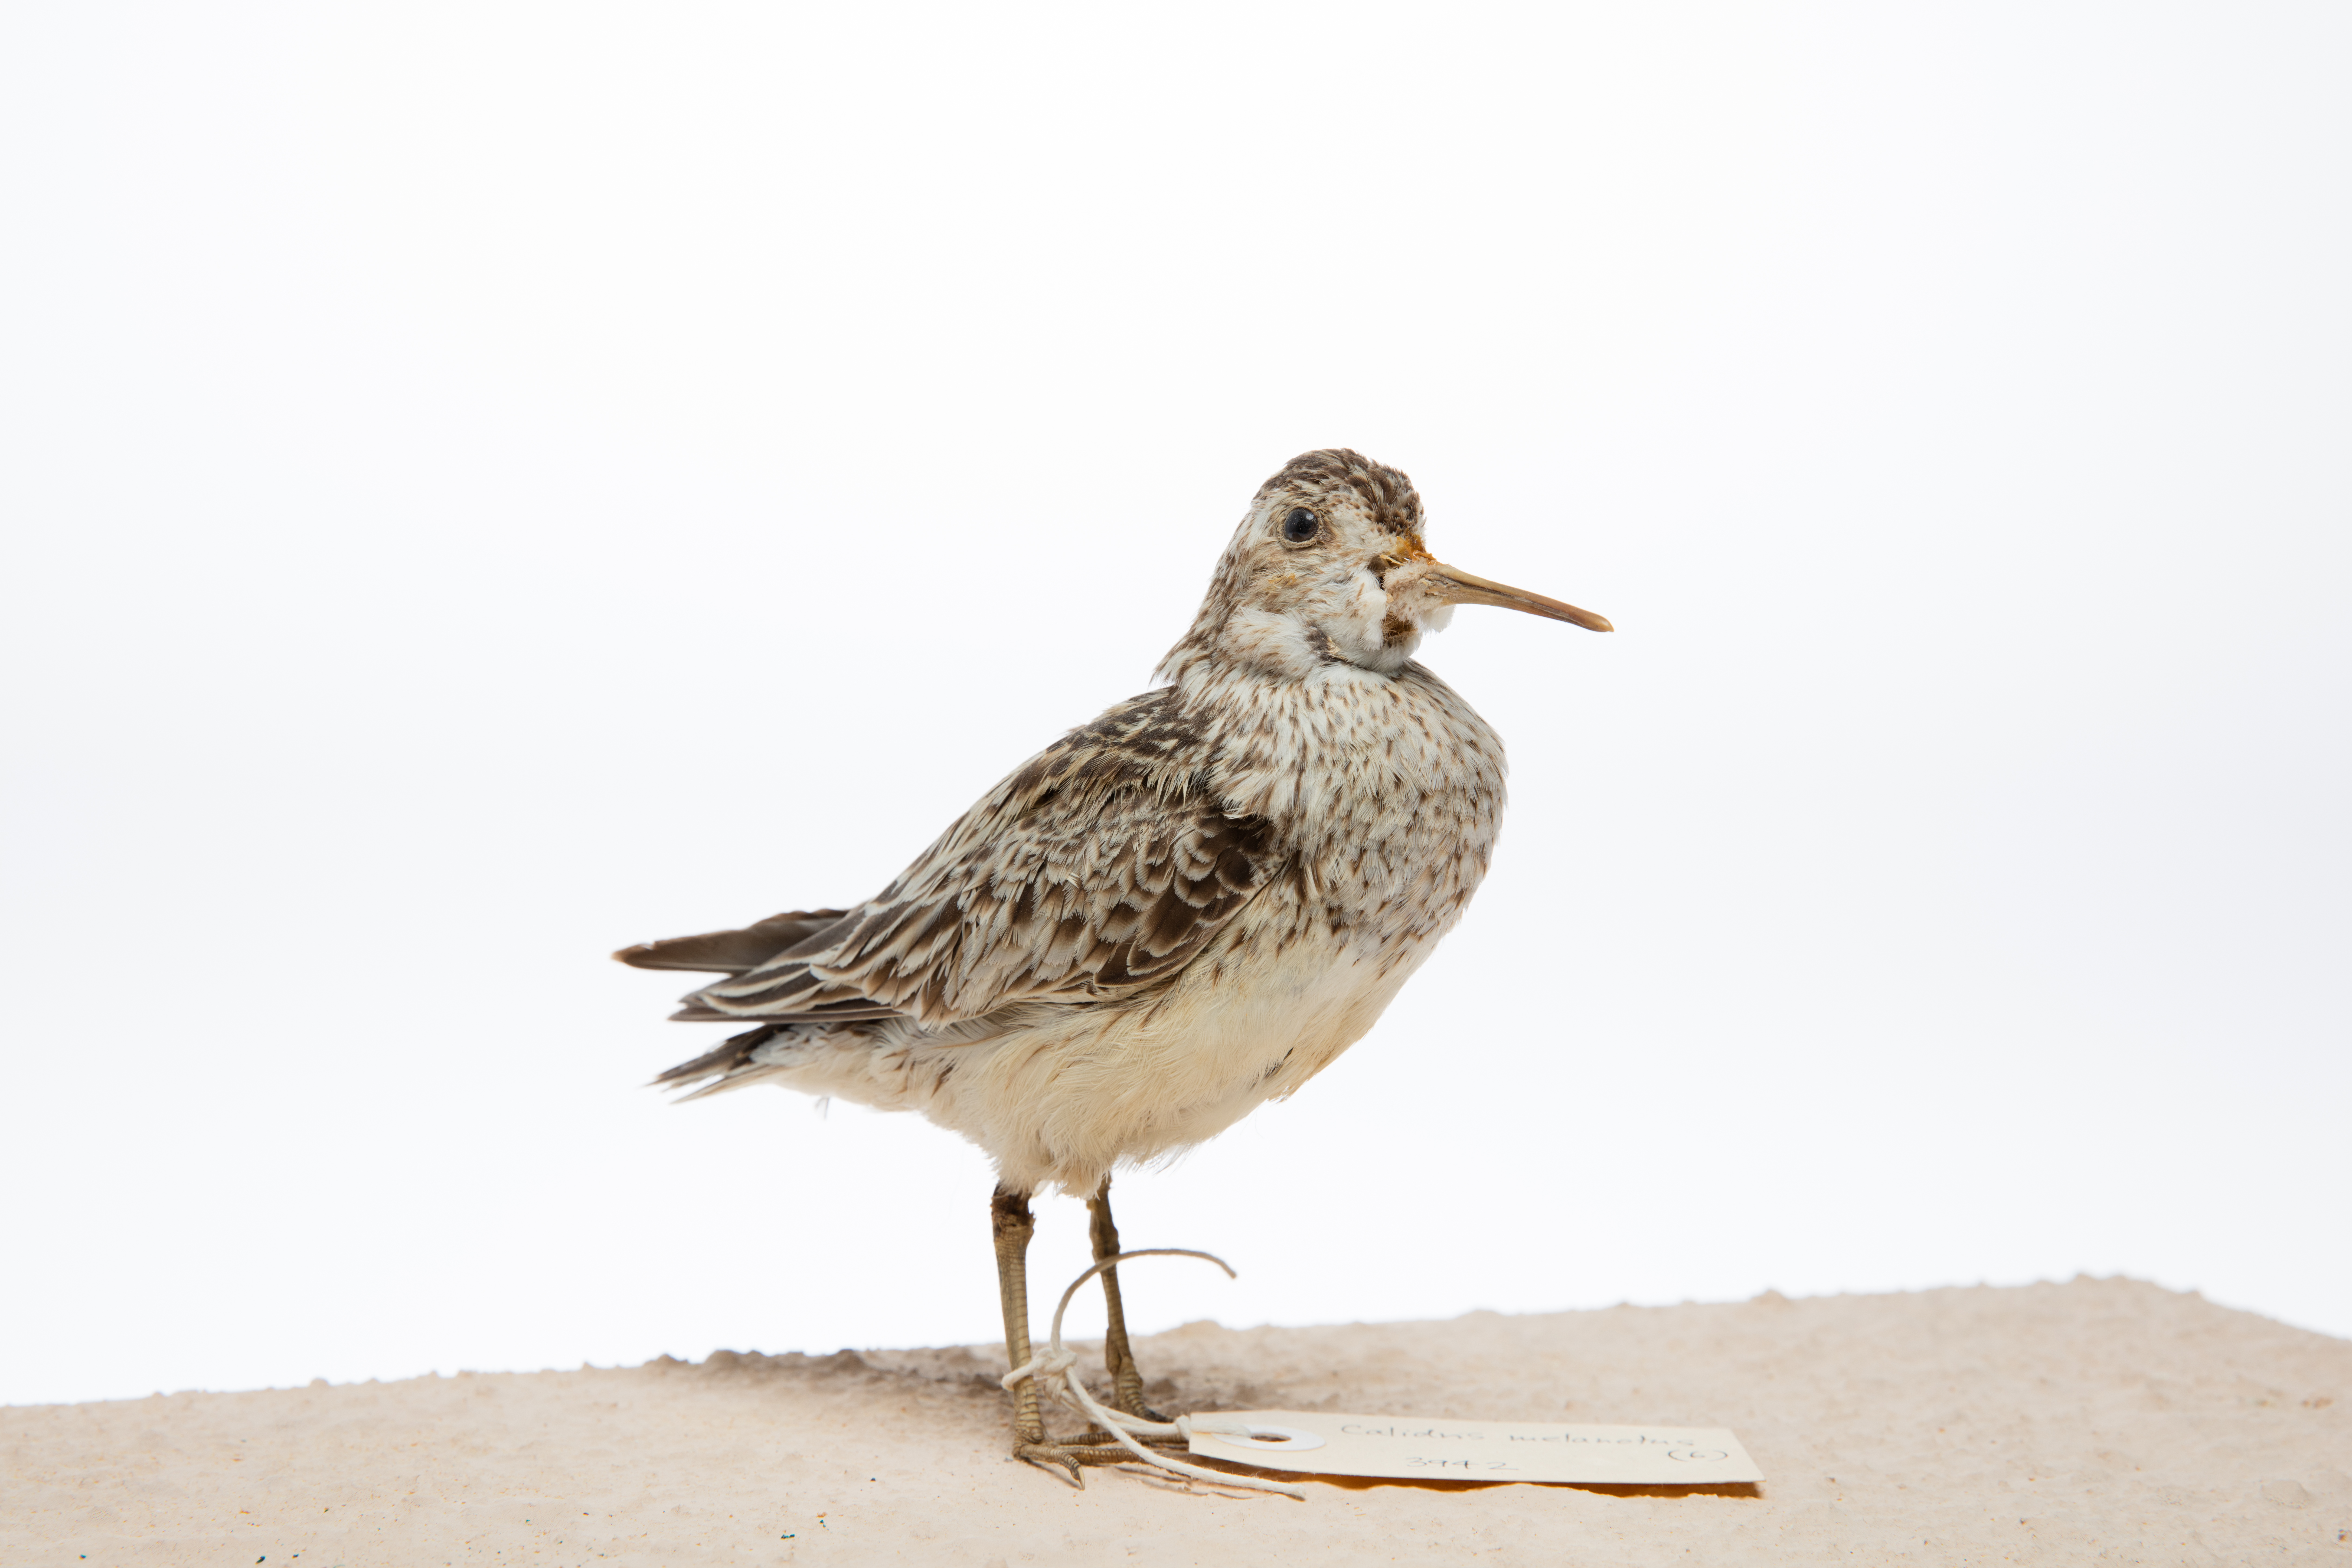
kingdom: Animalia
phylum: Chordata
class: Aves
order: Charadriiformes
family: Scolopacidae
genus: Calidris
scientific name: Calidris melanotos
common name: Pectoral sandpiper
